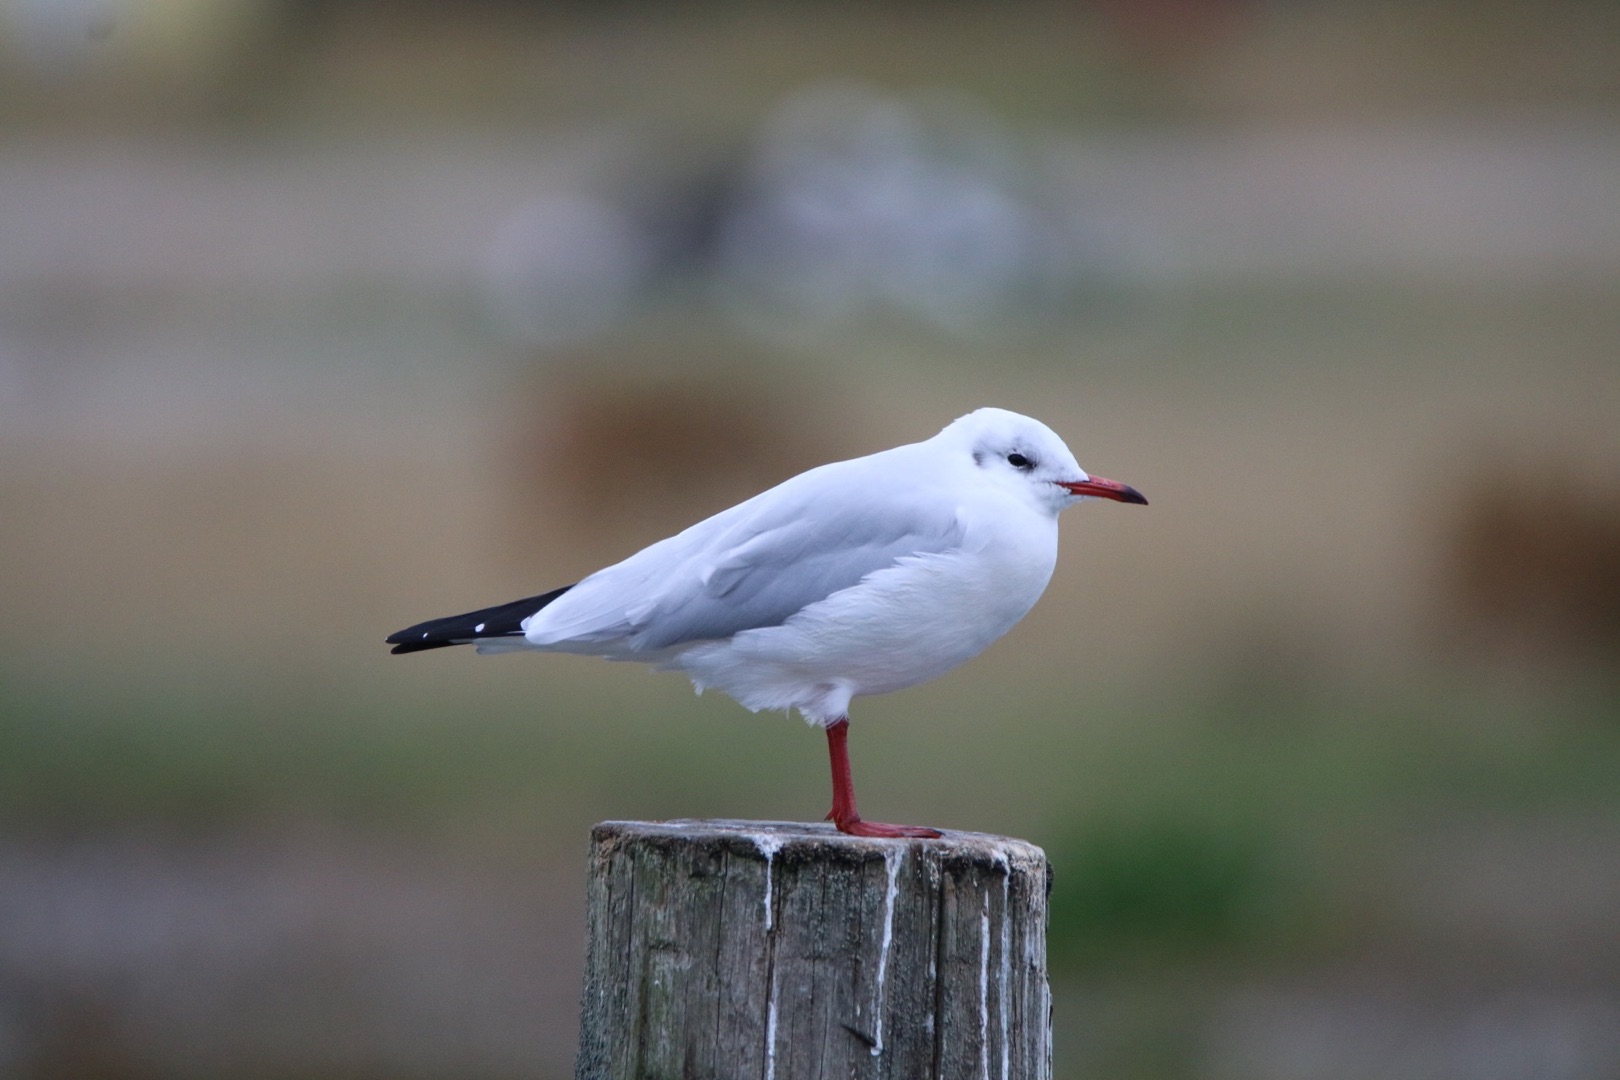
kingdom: Animalia
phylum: Chordata
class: Aves
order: Charadriiformes
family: Laridae
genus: Chroicocephalus
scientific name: Chroicocephalus ridibundus
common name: Hættemåge
